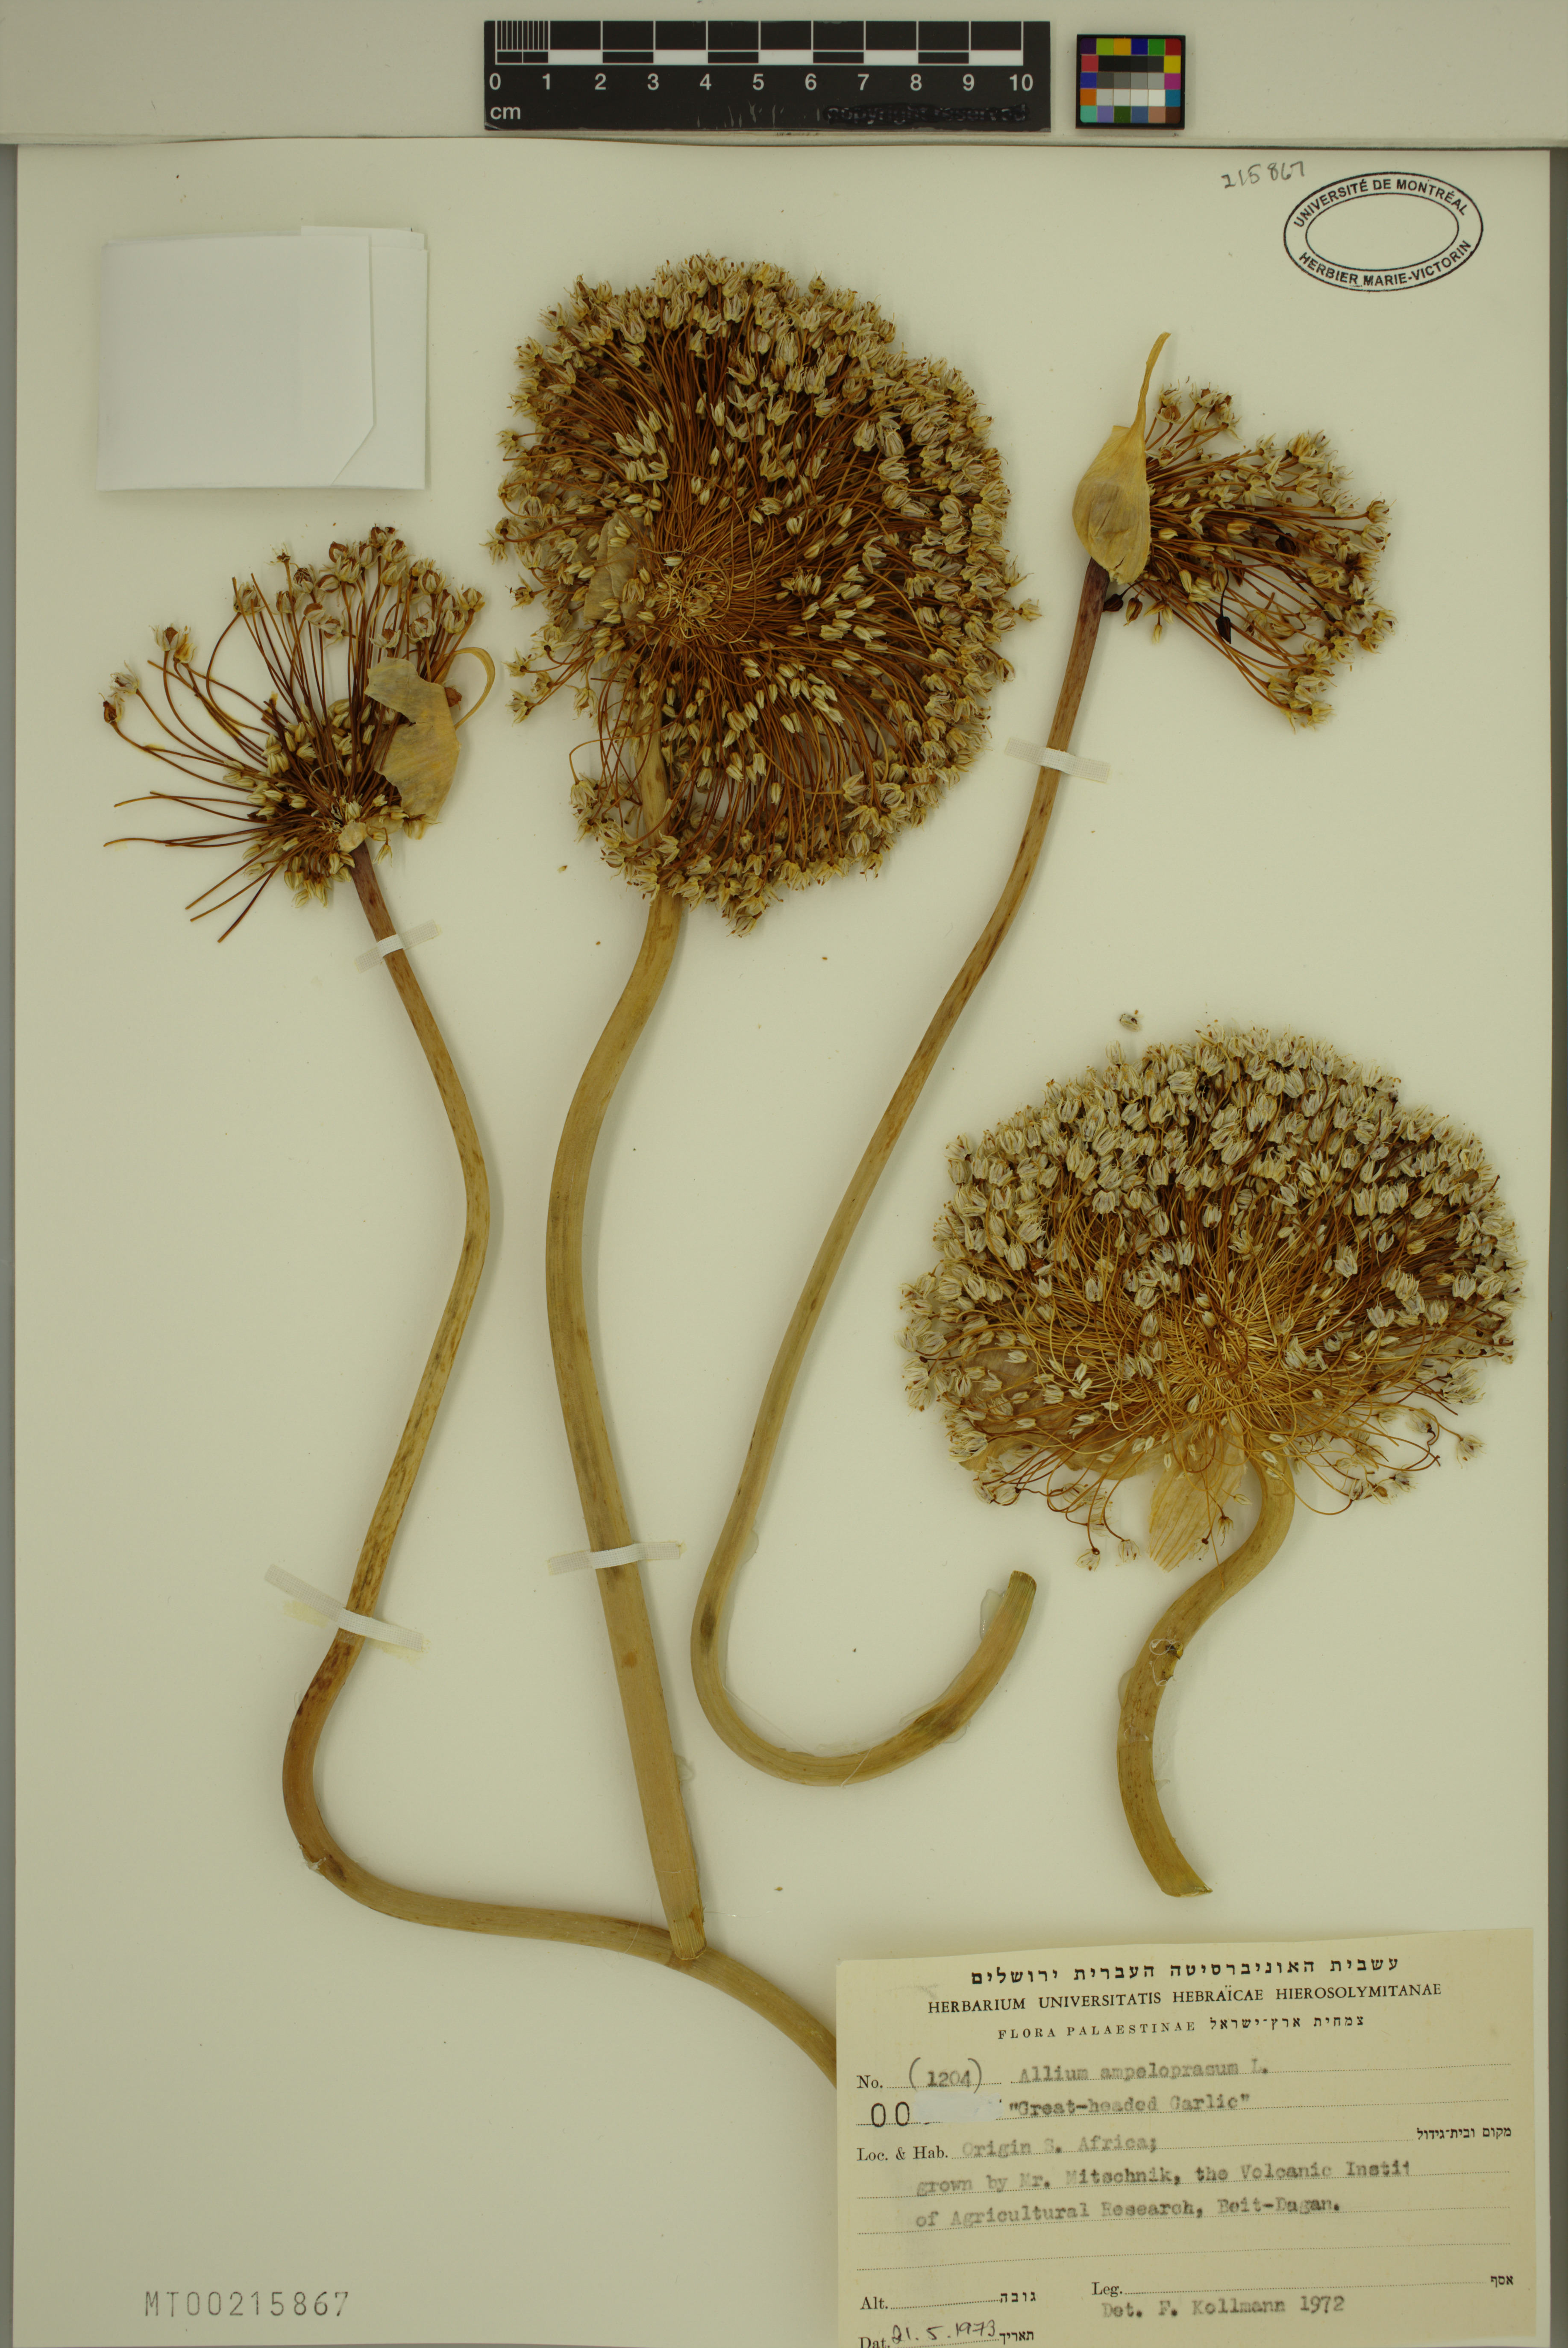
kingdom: Plantae
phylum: Tracheophyta
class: Liliopsida
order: Asparagales
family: Amaryllidaceae
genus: Allium
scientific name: Allium ampeloprasum
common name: Wild leek
